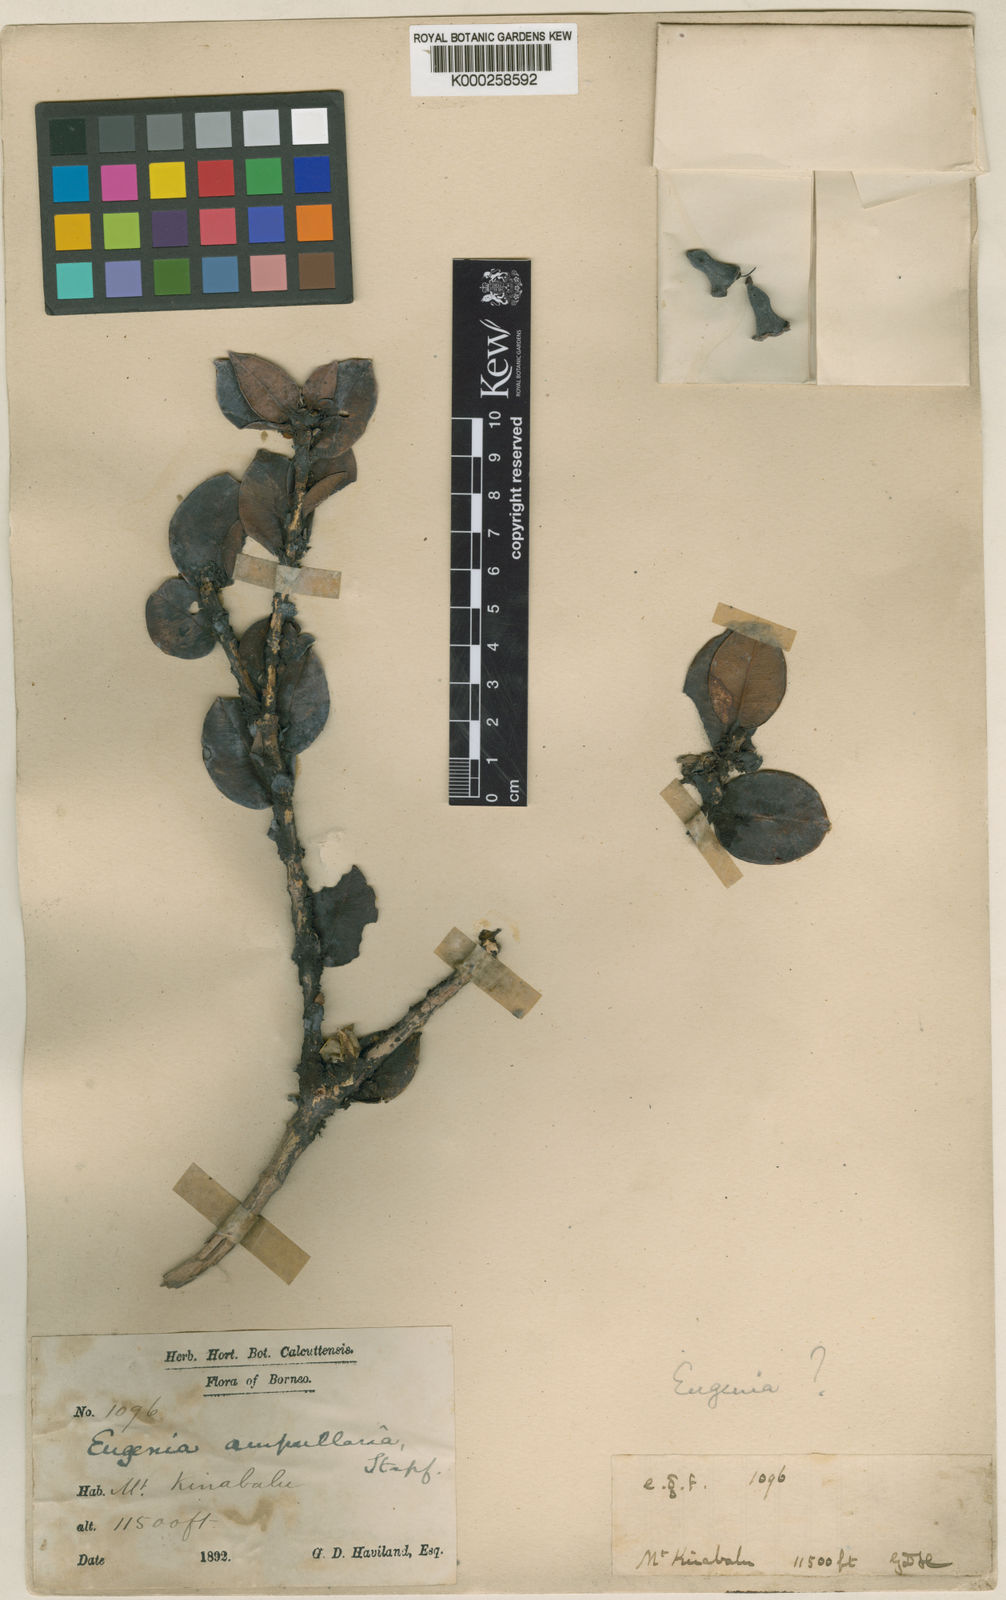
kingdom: Plantae
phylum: Tracheophyta
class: Magnoliopsida
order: Myrtales
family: Myrtaceae
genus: Syzygium
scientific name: Syzygium ampullarium
